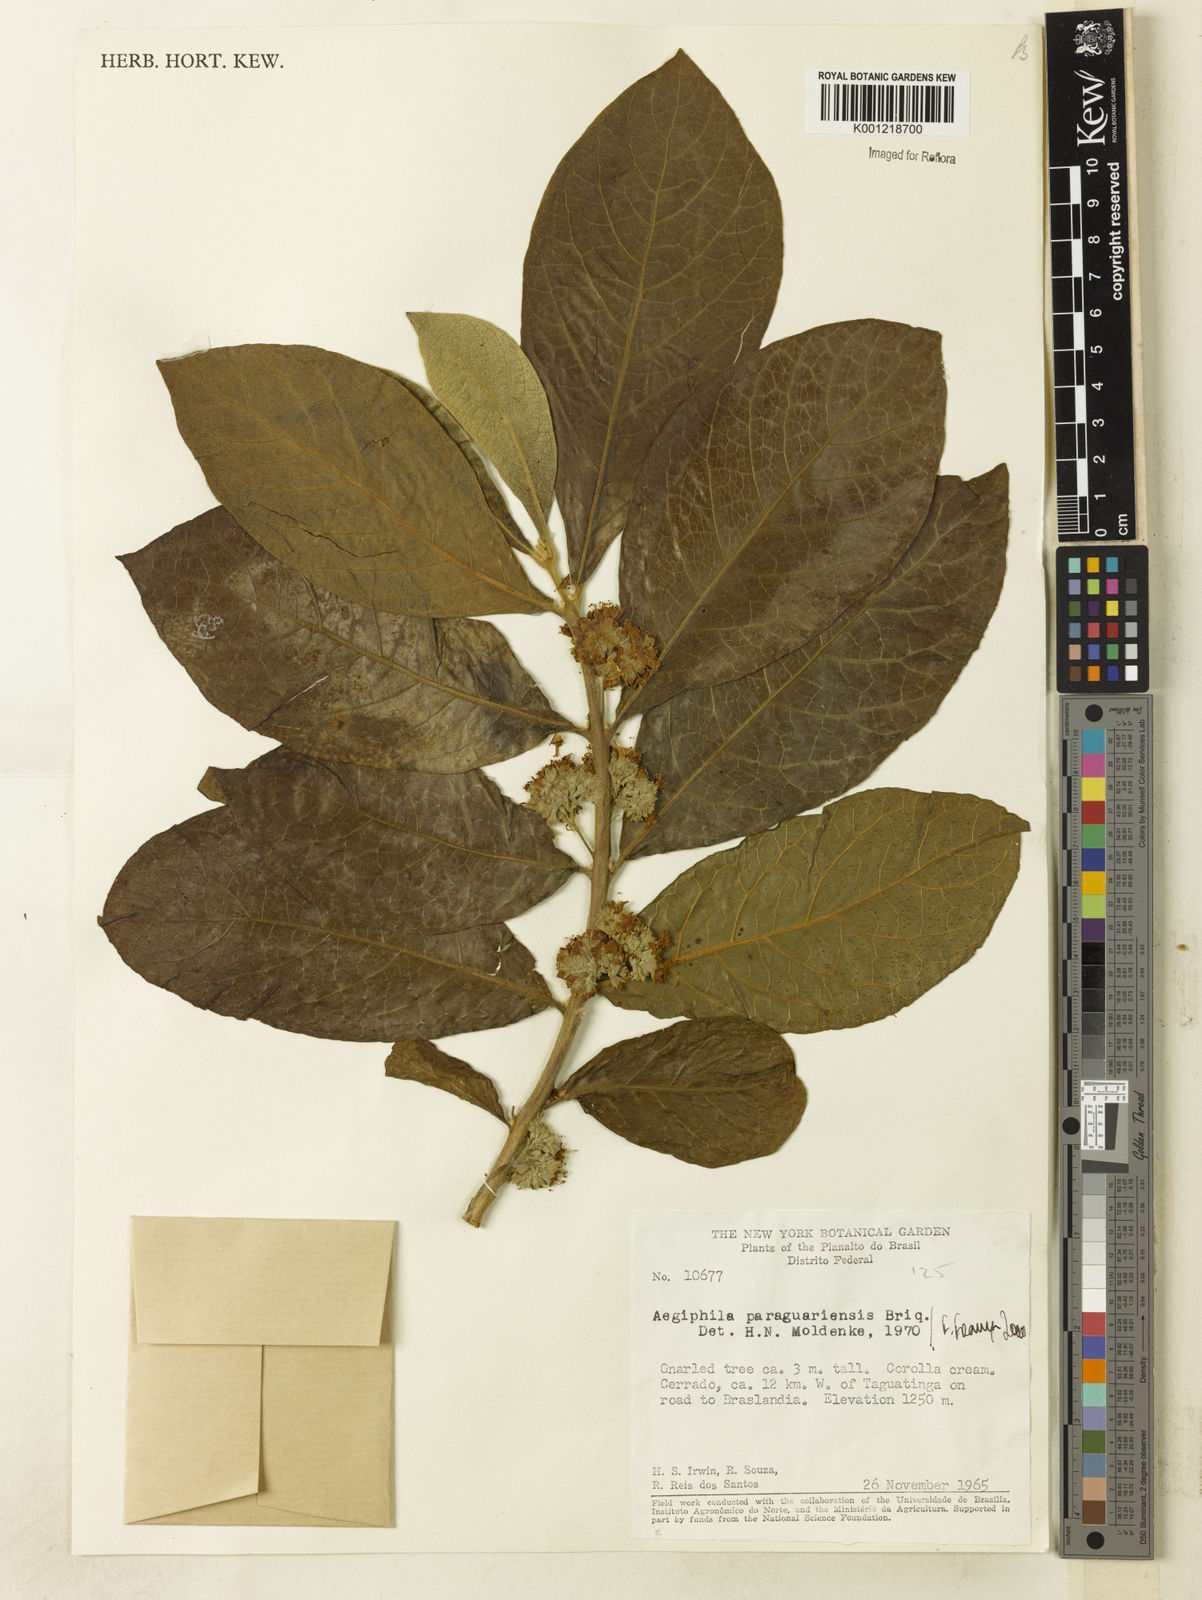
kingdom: Plantae
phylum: Tracheophyta
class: Magnoliopsida
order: Lamiales
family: Lamiaceae
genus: Aegiphila
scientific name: Aegiphila paraguariensis
